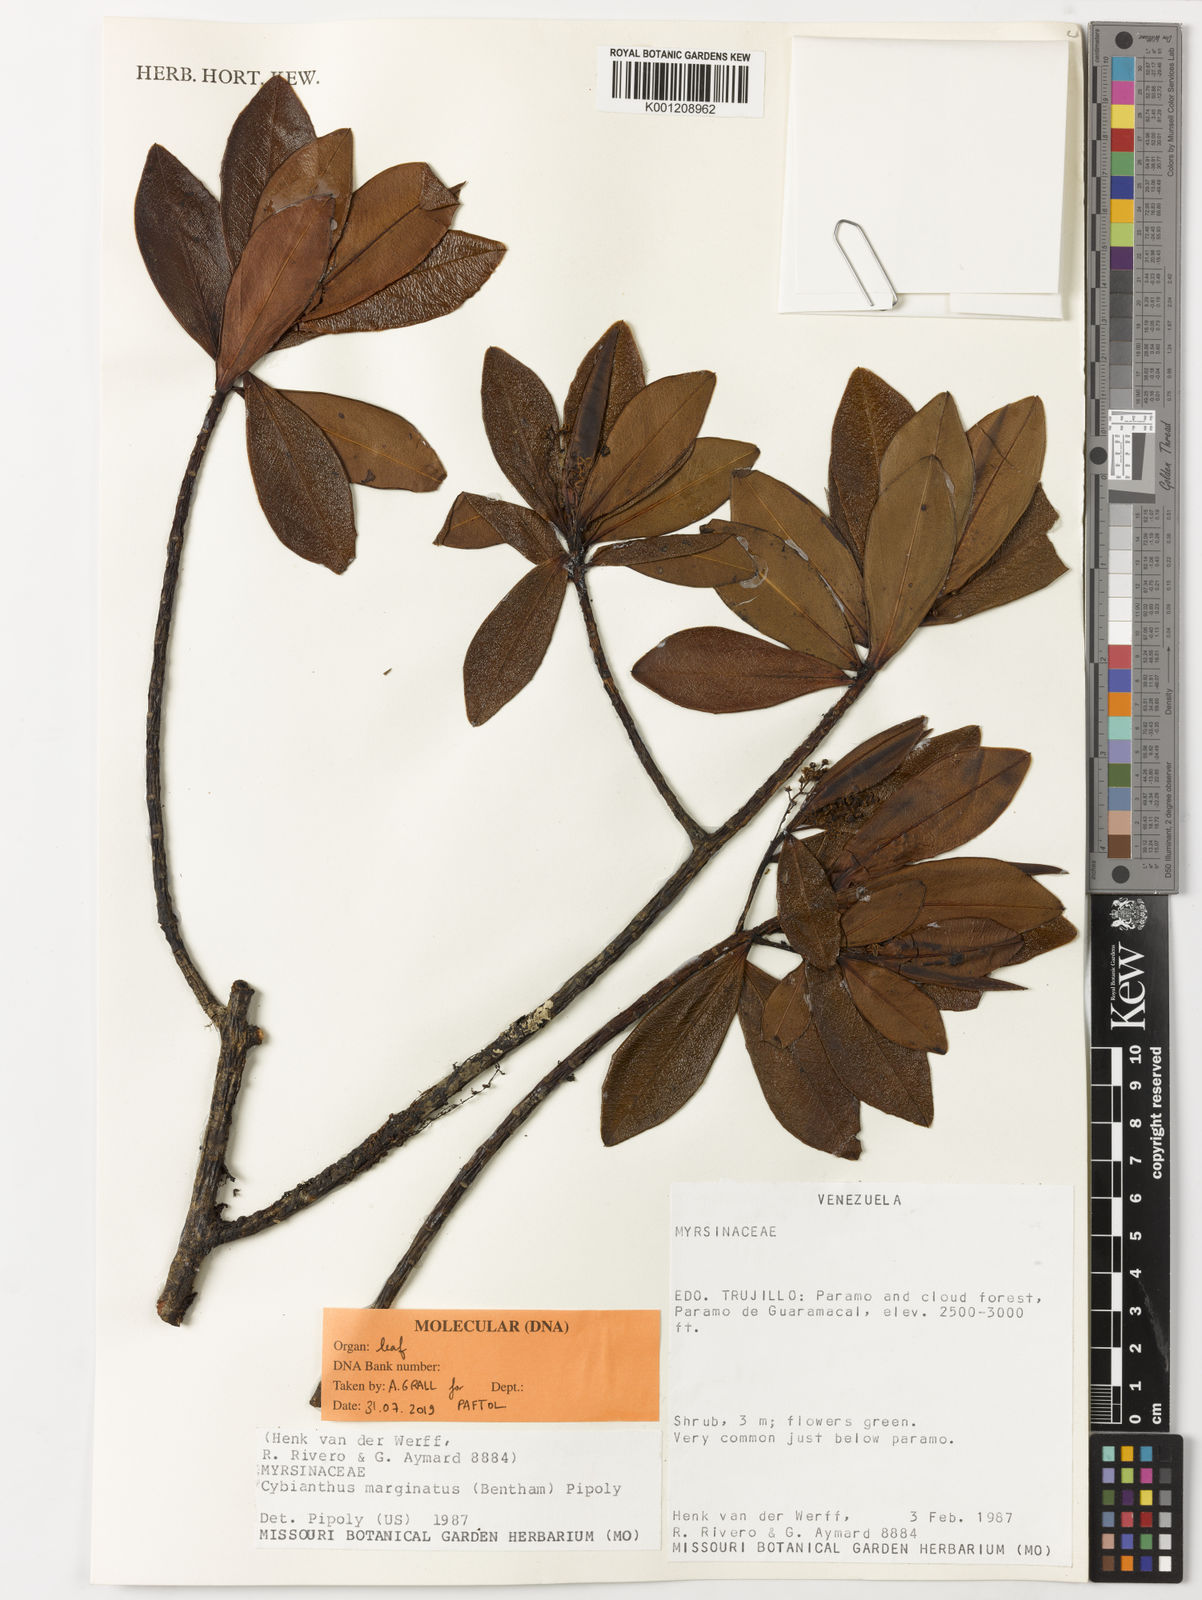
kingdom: Plantae
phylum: Tracheophyta
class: Magnoliopsida
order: Ericales
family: Primulaceae
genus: Cybianthus
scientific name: Cybianthus marginatus
